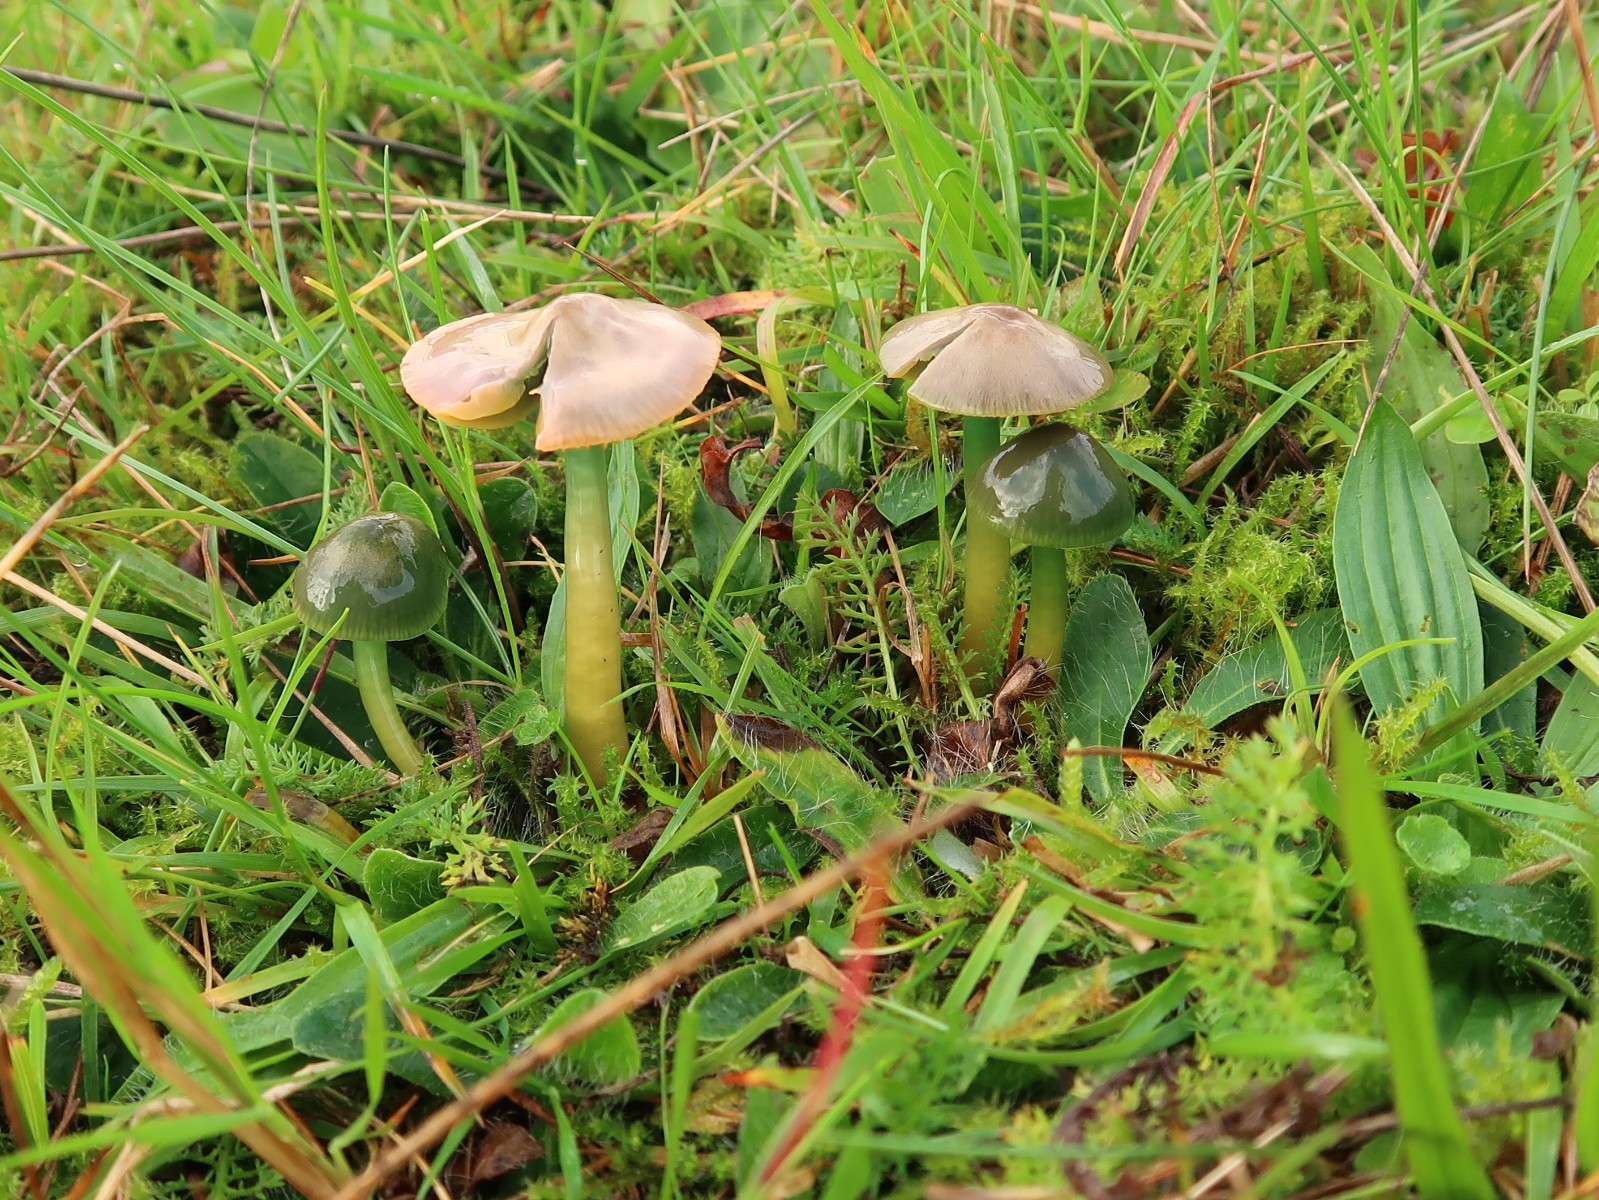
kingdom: Fungi
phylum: Basidiomycota
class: Agaricomycetes
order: Agaricales
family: Hygrophoraceae
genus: Gliophorus
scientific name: Gliophorus psittacinus
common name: papegøje-vokshat
